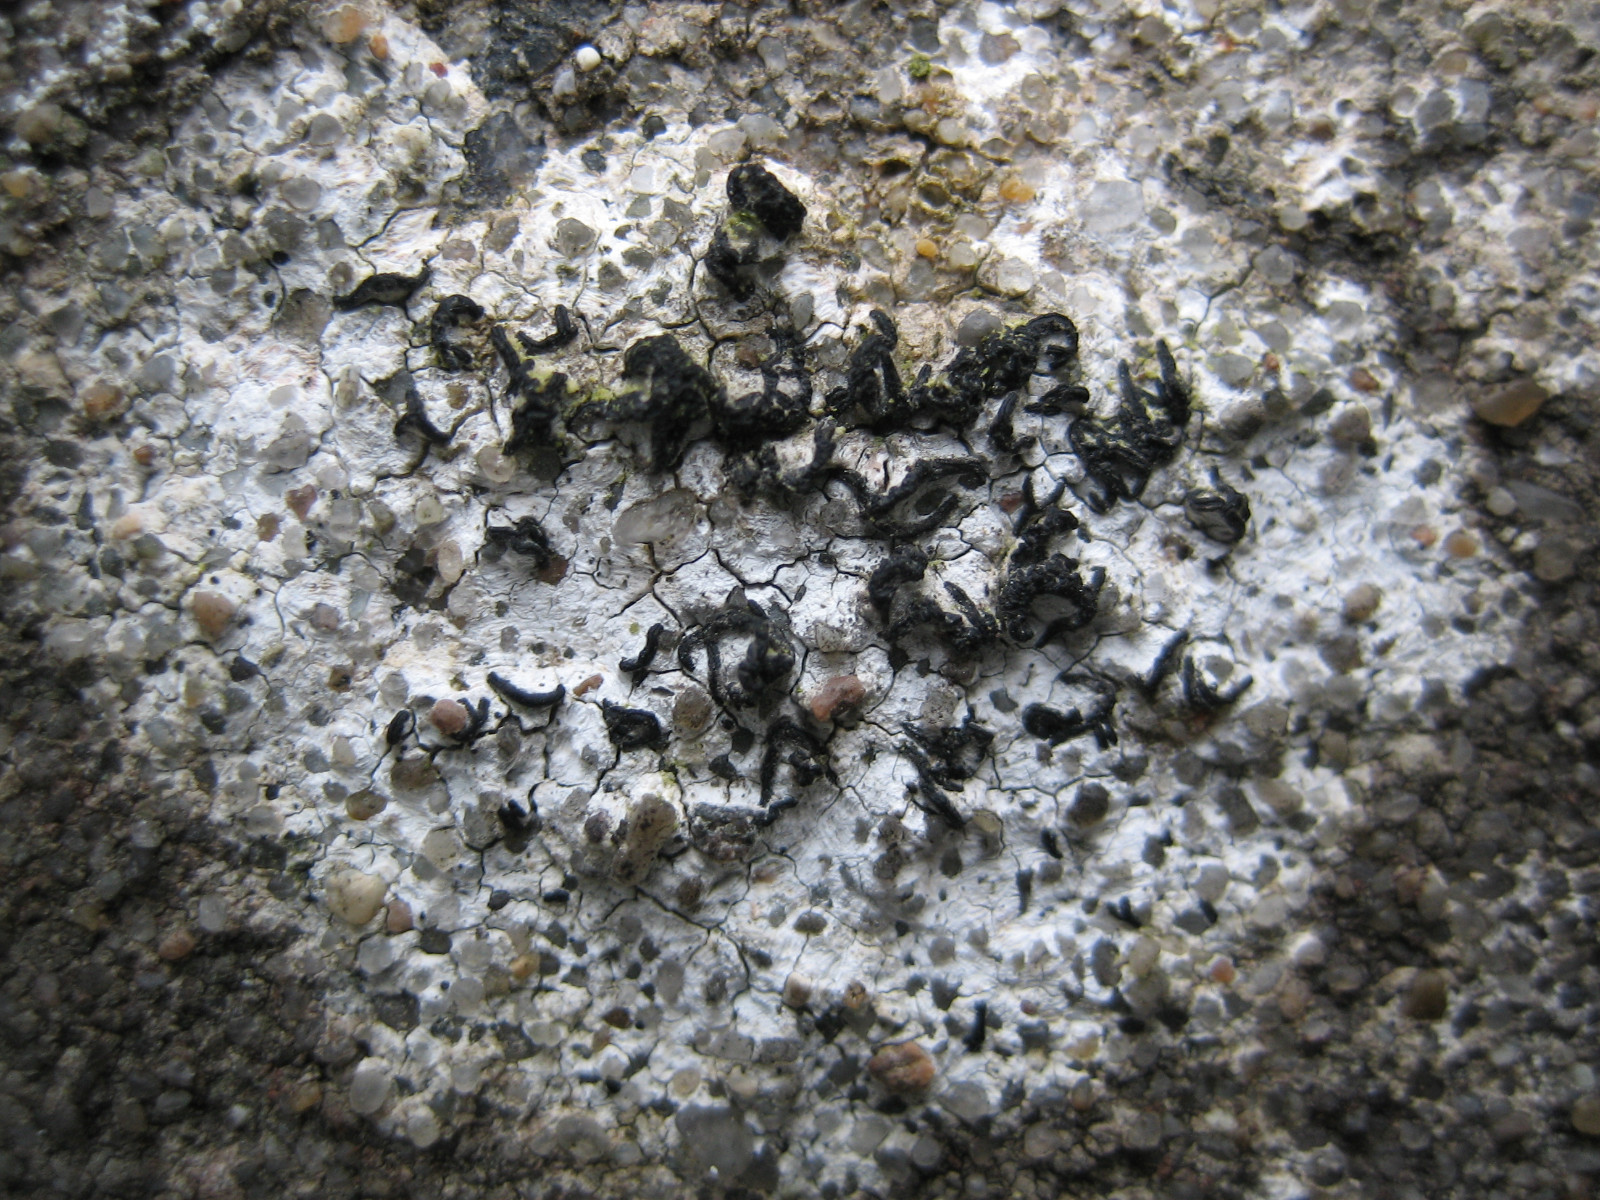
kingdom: Fungi
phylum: Ascomycota
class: Arthoniomycetes
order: Arthoniales
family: Arthoniaceae
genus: Arthonia
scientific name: Arthonia calcarea
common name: kalk-bogstavlav
